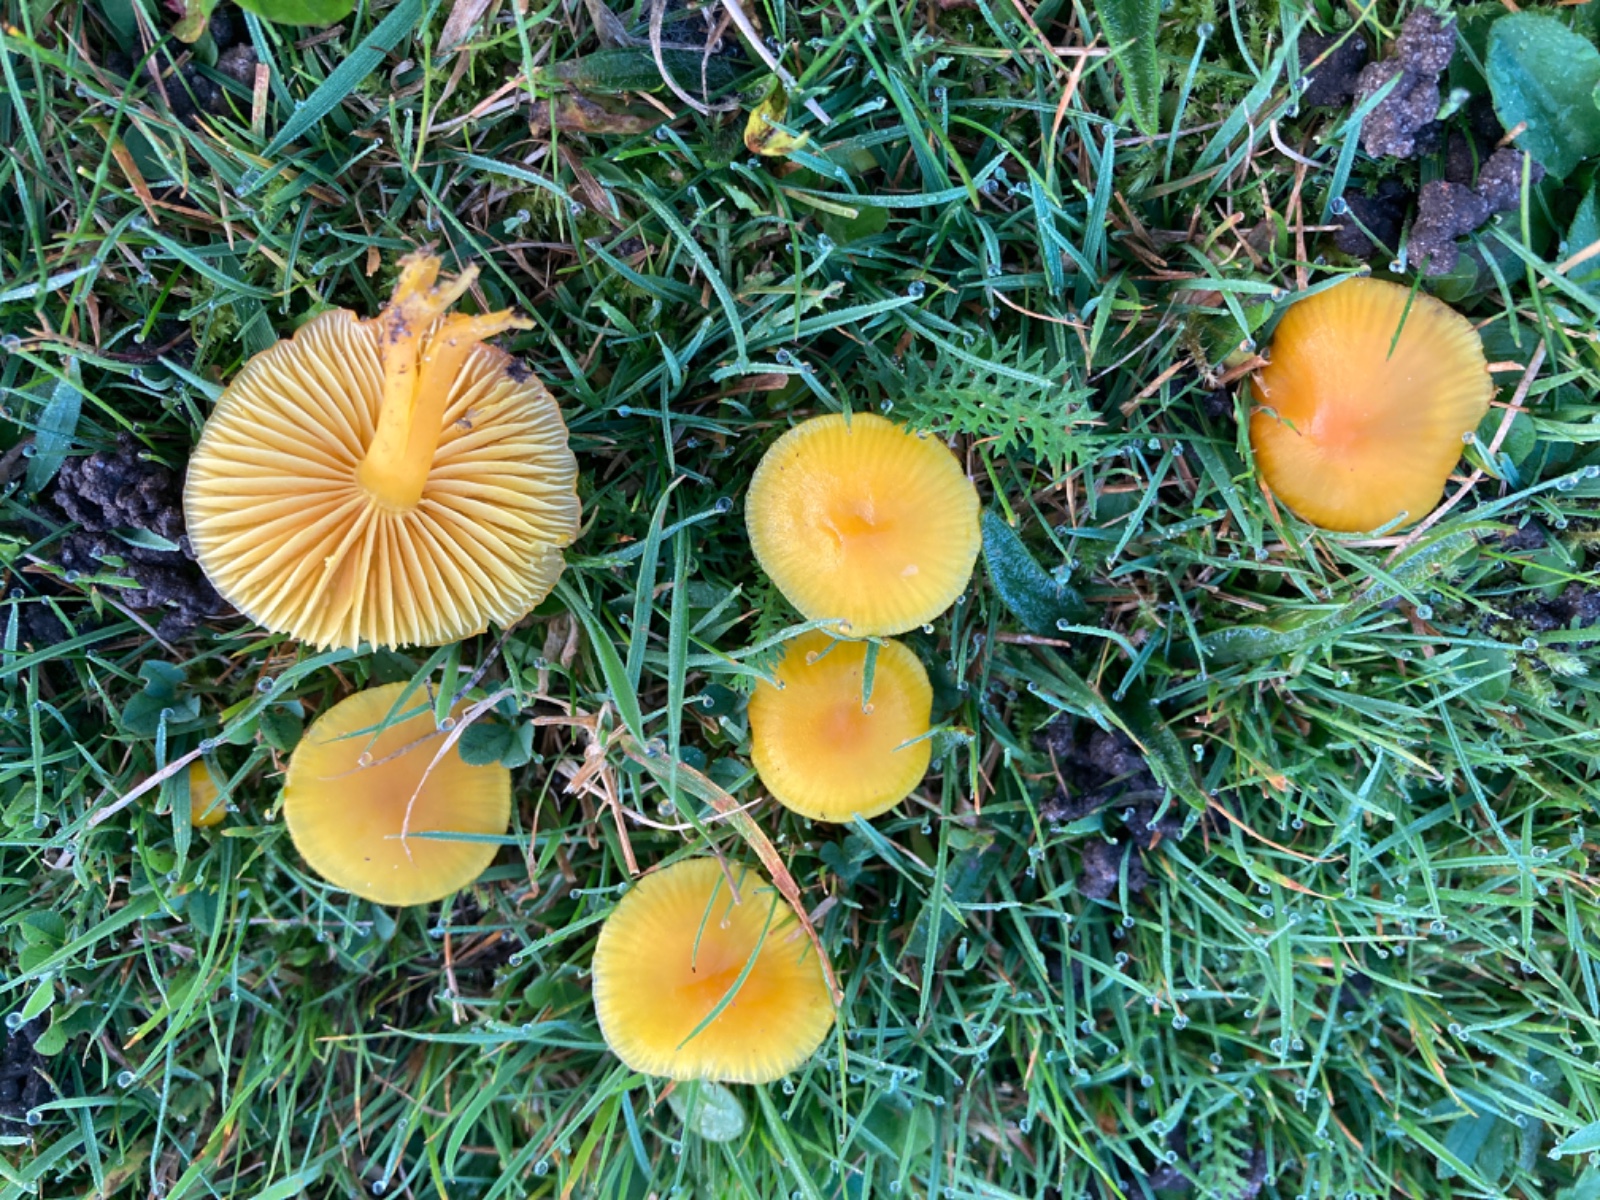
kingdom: Fungi
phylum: Basidiomycota
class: Agaricomycetes
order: Agaricales
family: Hygrophoraceae
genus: Hygrocybe
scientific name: Hygrocybe ceracea
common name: voksgul vokshat
